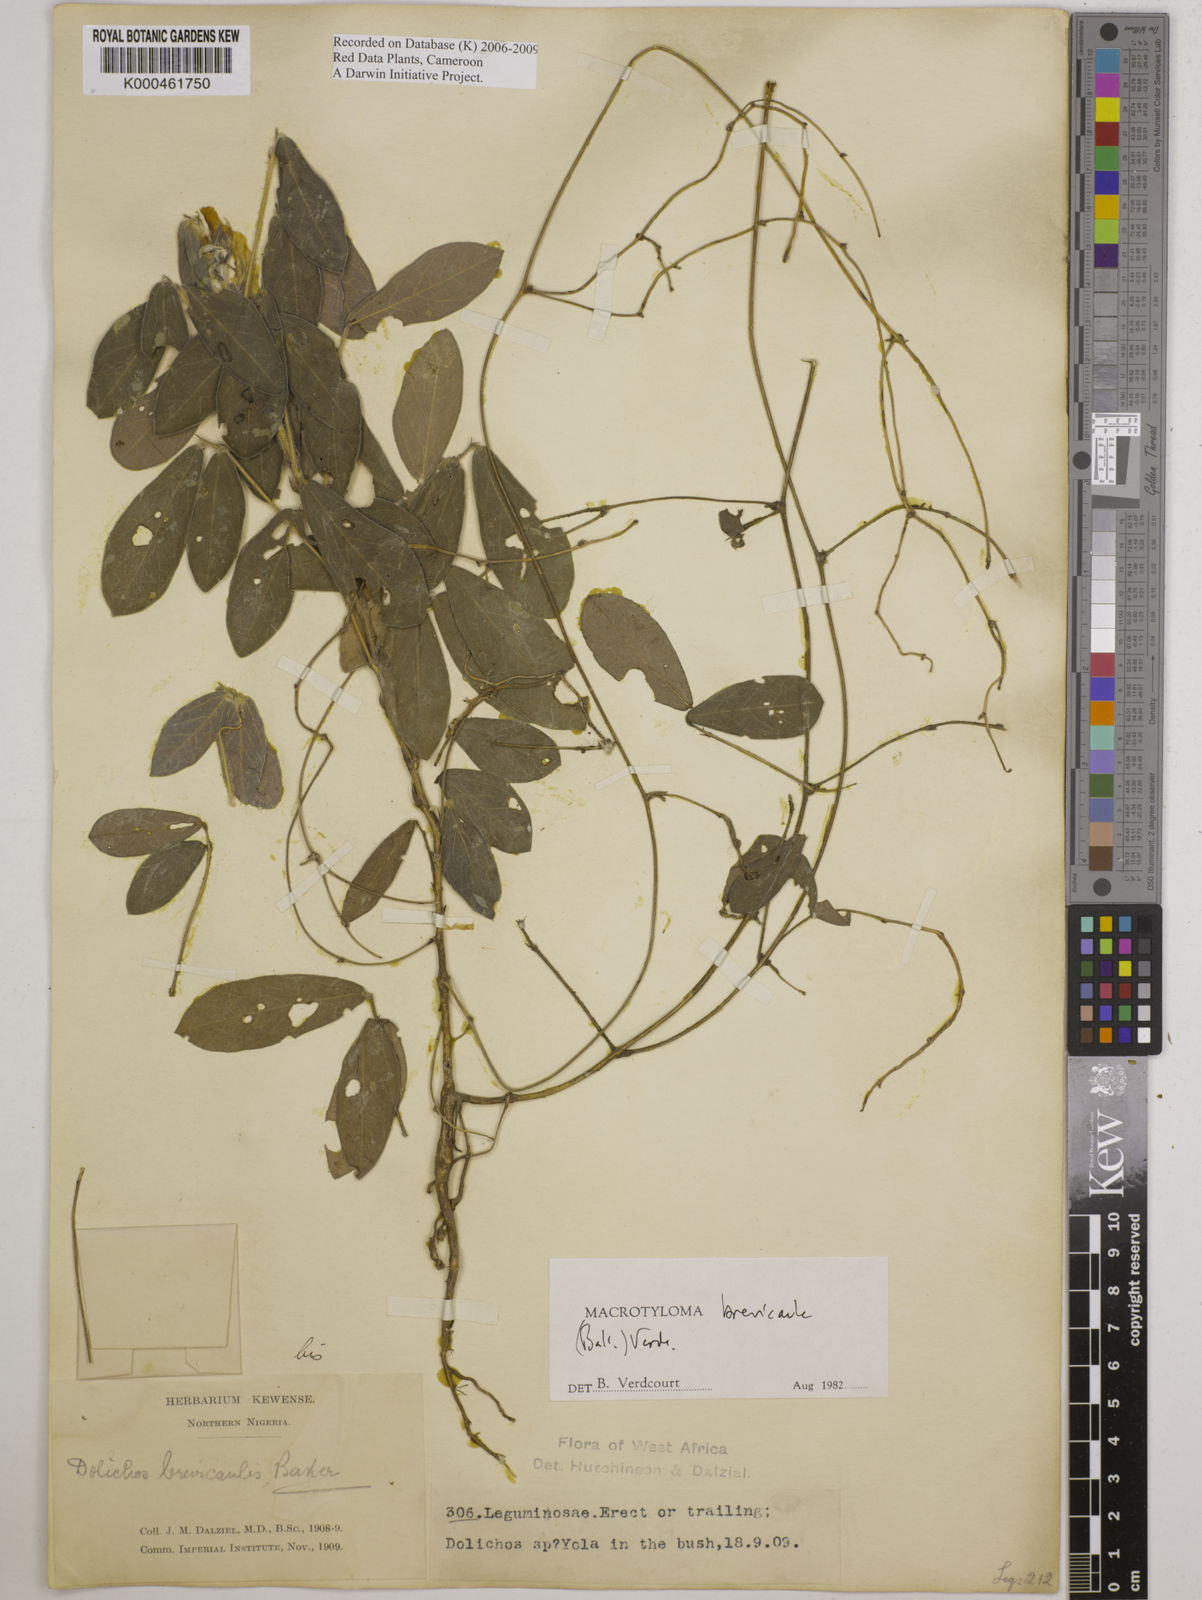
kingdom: Plantae
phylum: Tracheophyta
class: Magnoliopsida
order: Fabales
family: Fabaceae
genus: Macrotyloma
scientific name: Macrotyloma brevicaule
